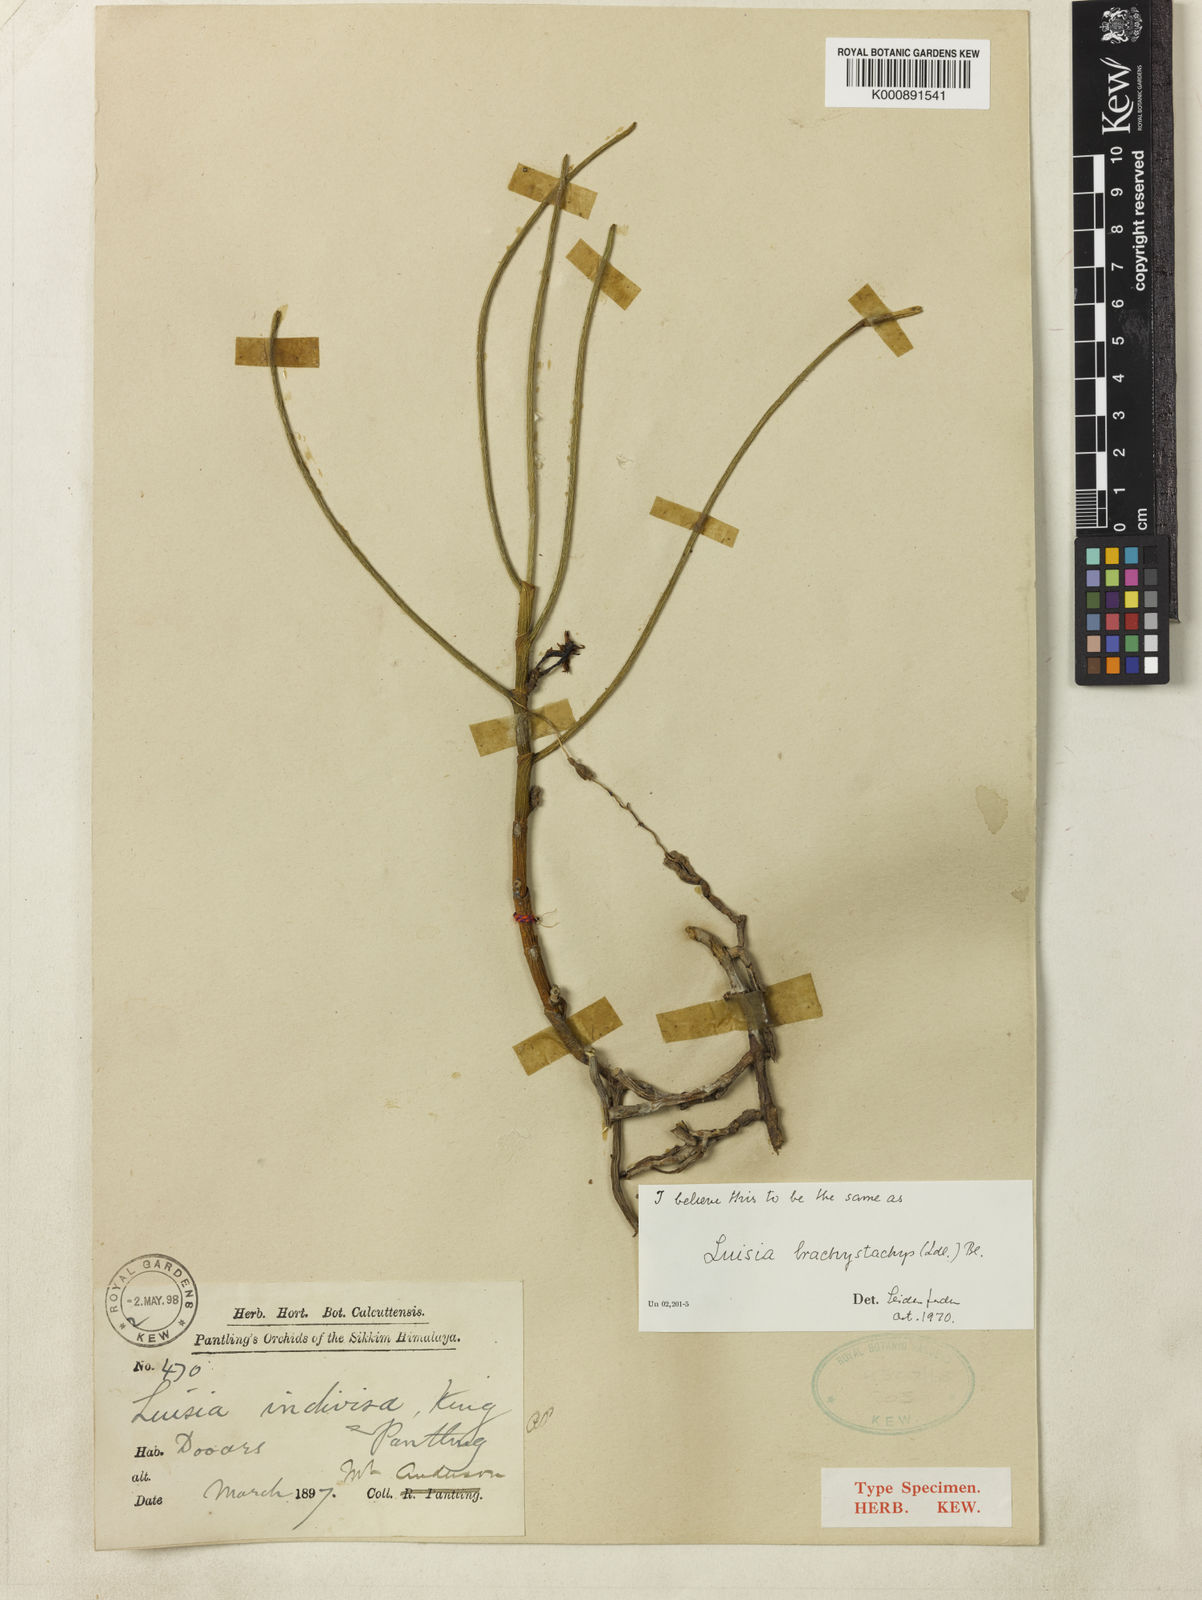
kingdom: Plantae
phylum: Tracheophyta
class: Liliopsida
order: Asparagales
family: Orchidaceae
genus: Luisia
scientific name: Luisia brachystachys
